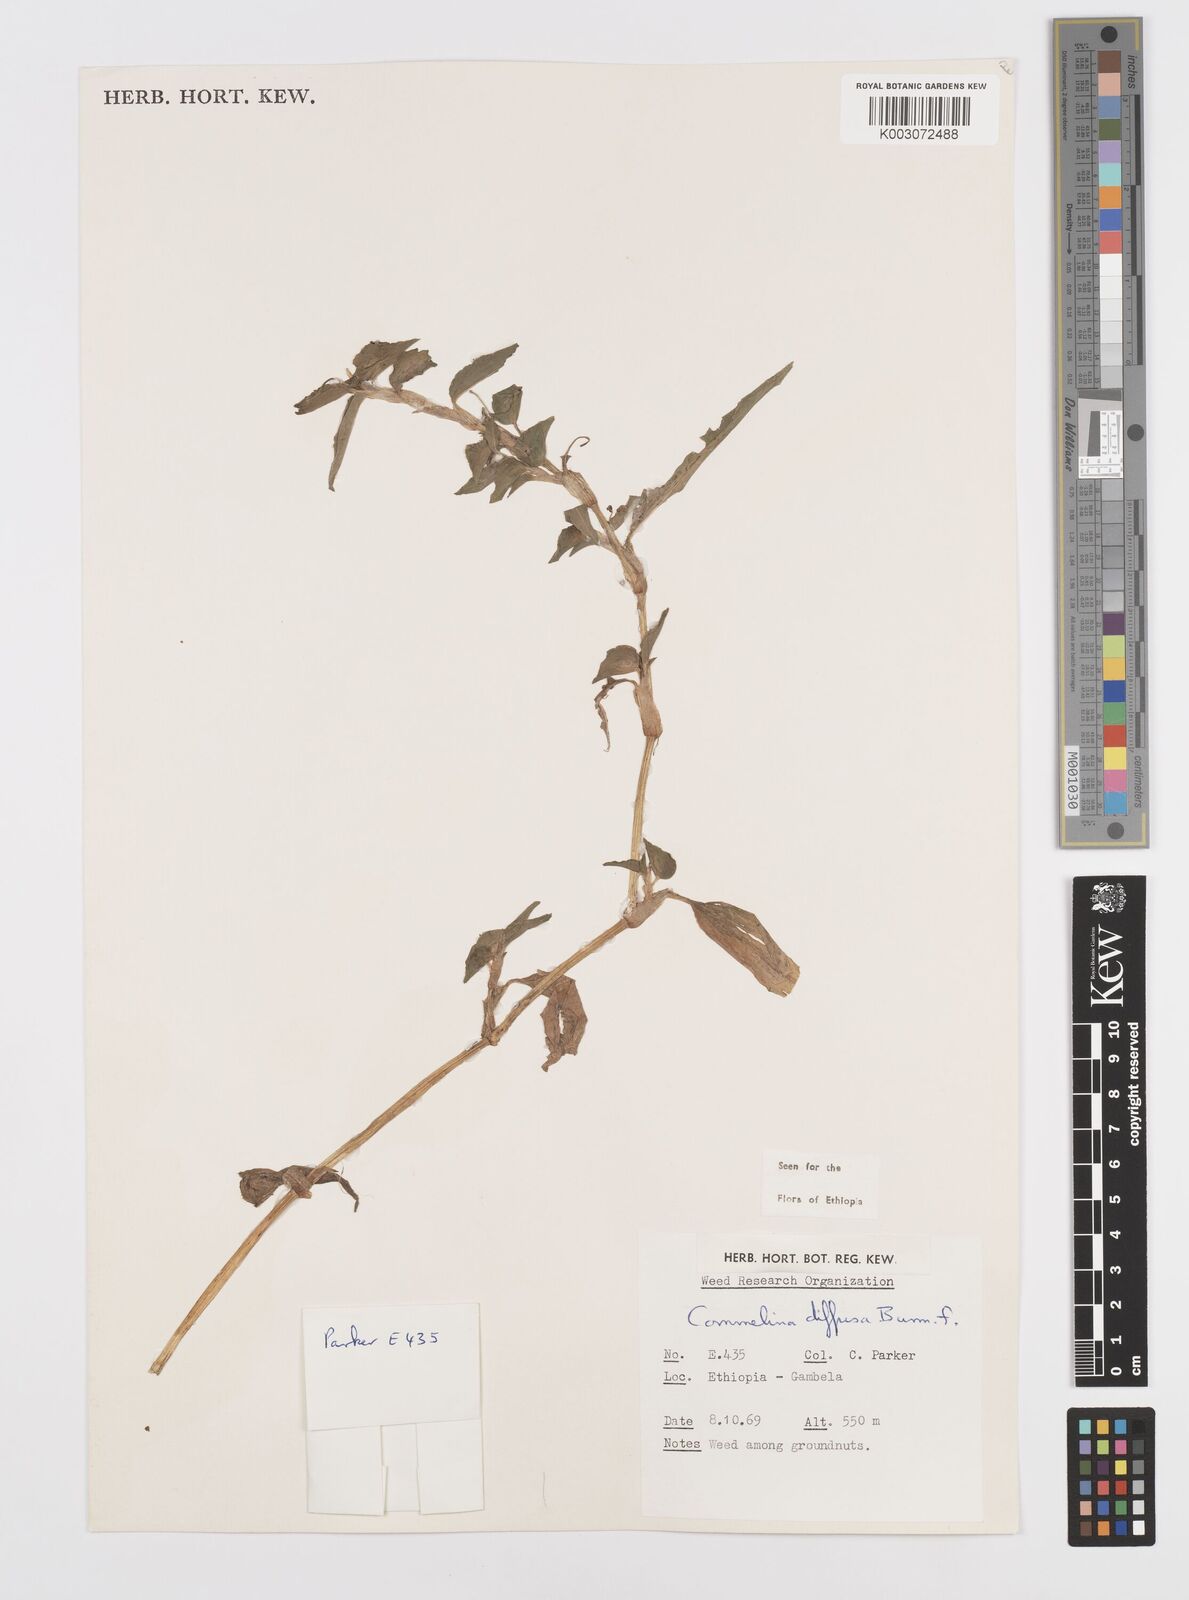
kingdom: Plantae
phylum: Tracheophyta
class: Liliopsida
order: Commelinales
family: Commelinaceae
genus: Commelina
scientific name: Commelina diffusa
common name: Climbing dayflower
